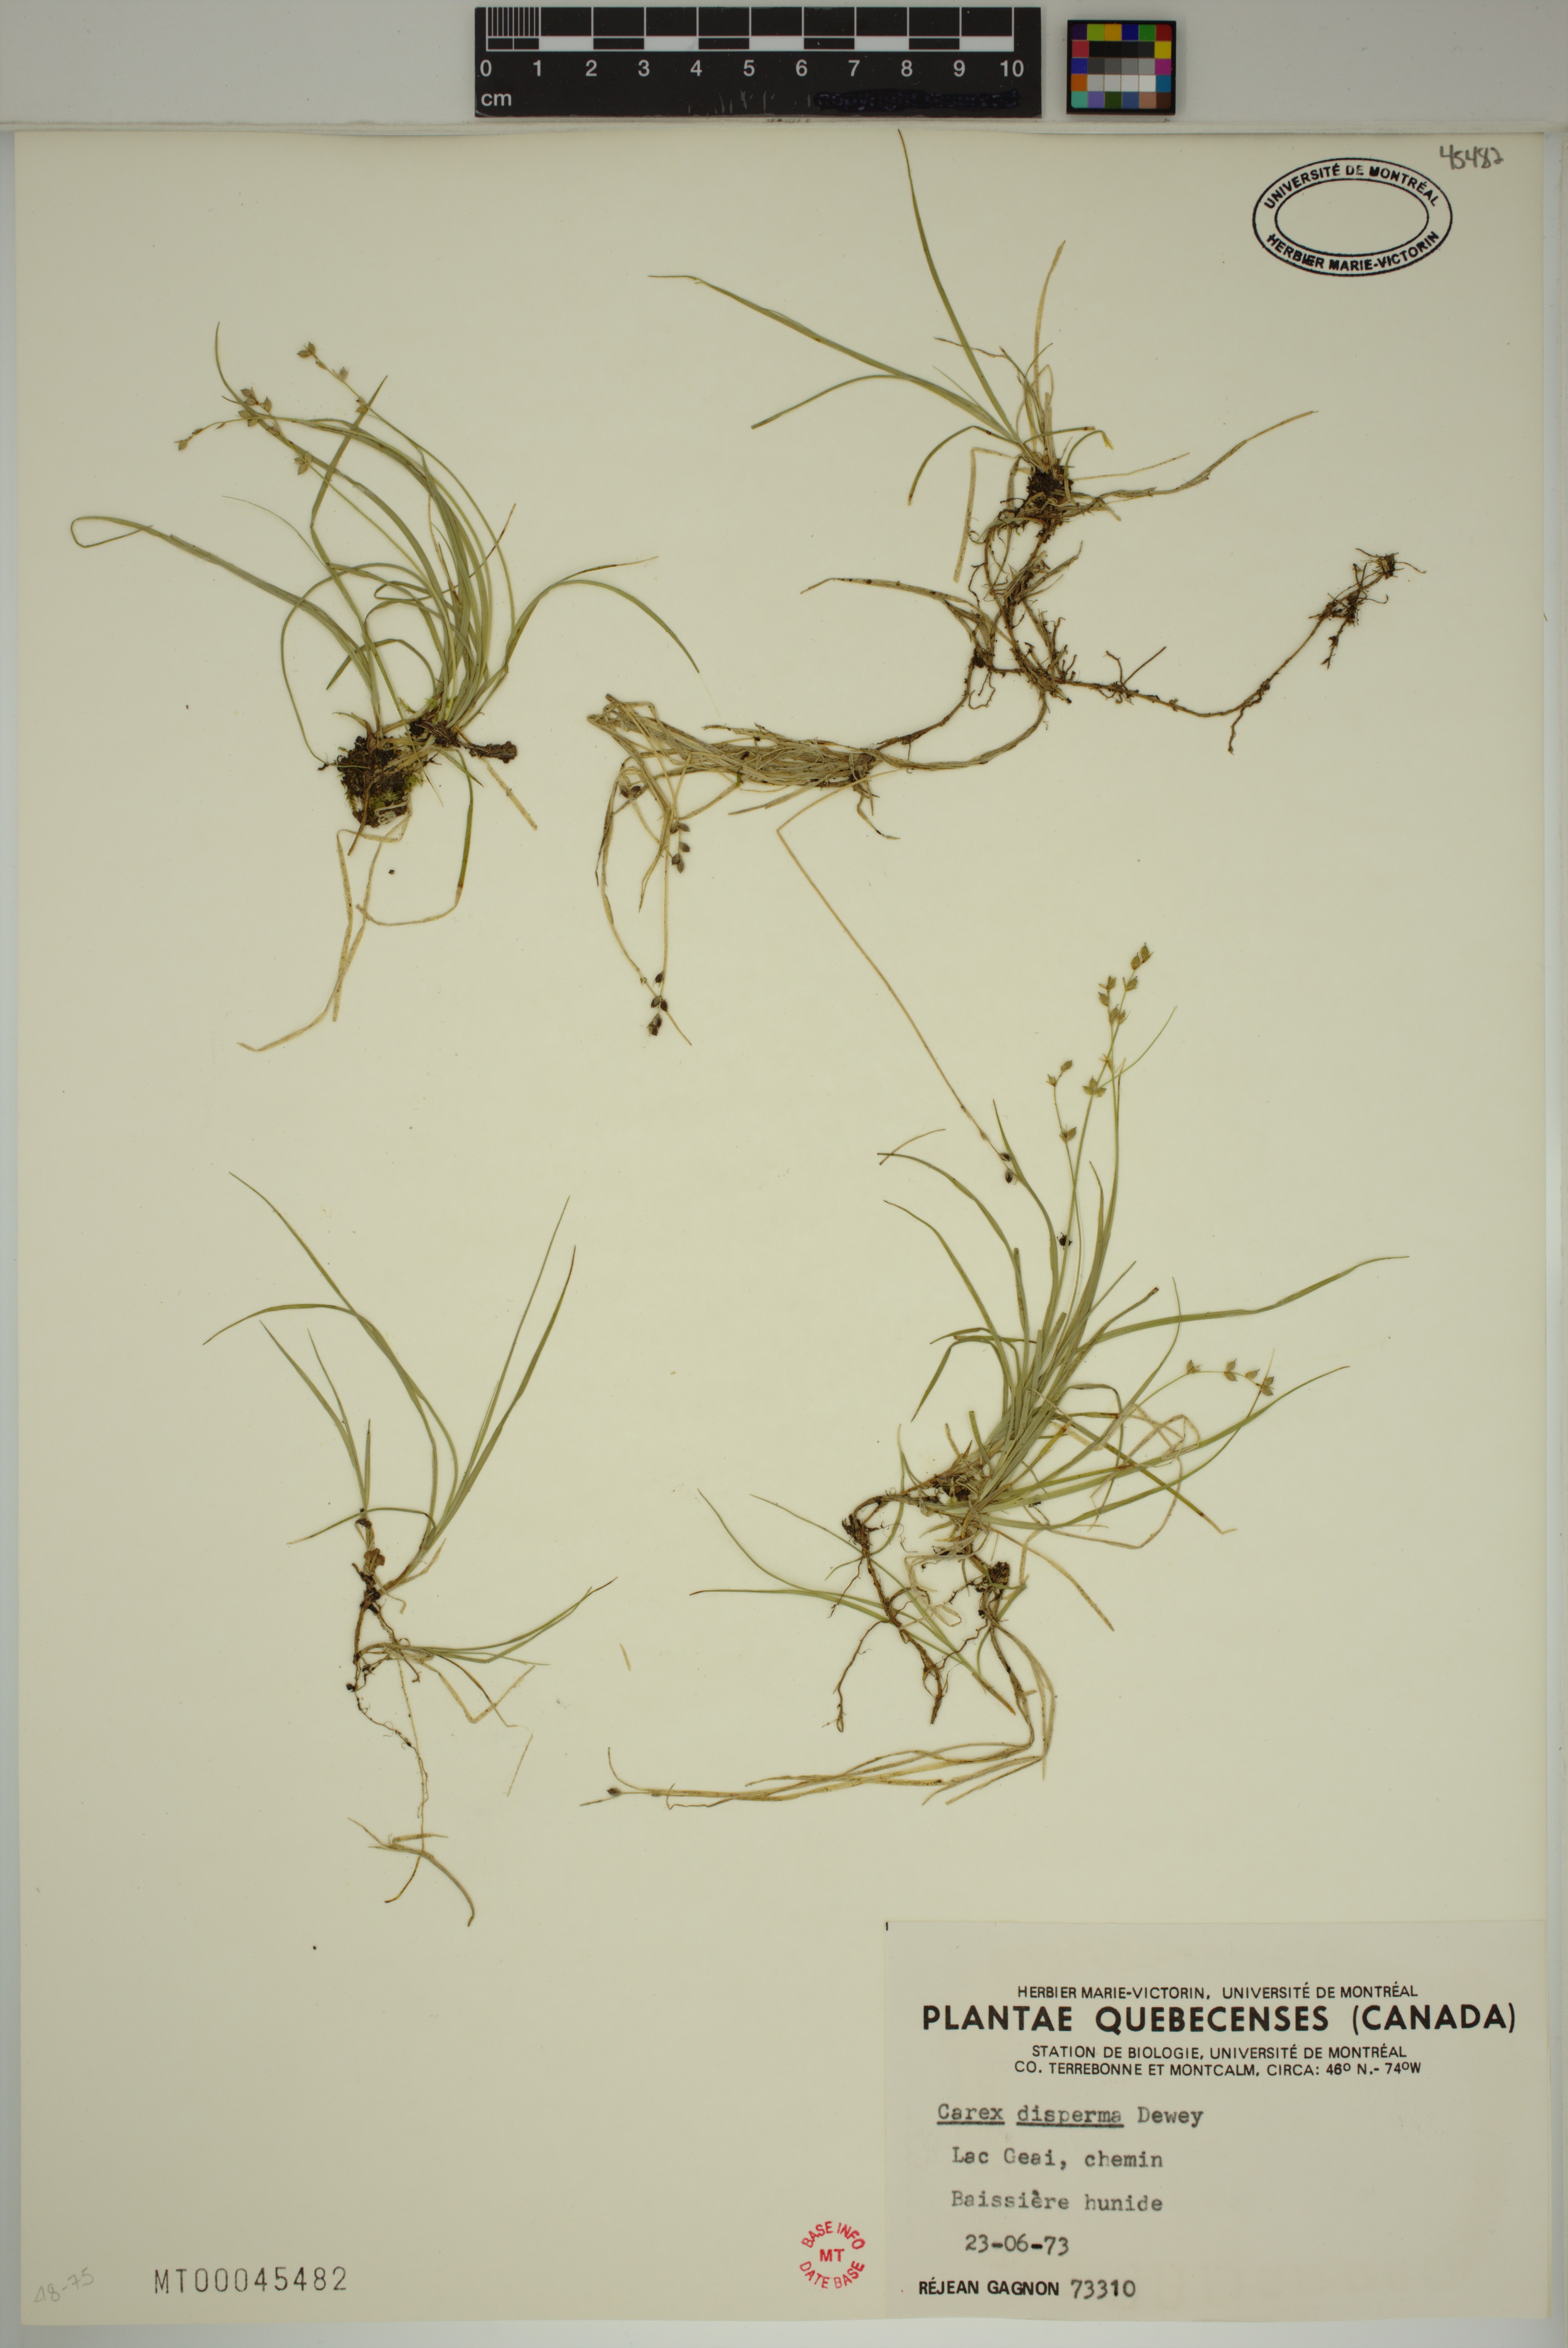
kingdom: Plantae
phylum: Tracheophyta
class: Liliopsida
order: Poales
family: Cyperaceae
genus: Carex
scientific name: Carex disperma
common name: Short-leaved sedge
